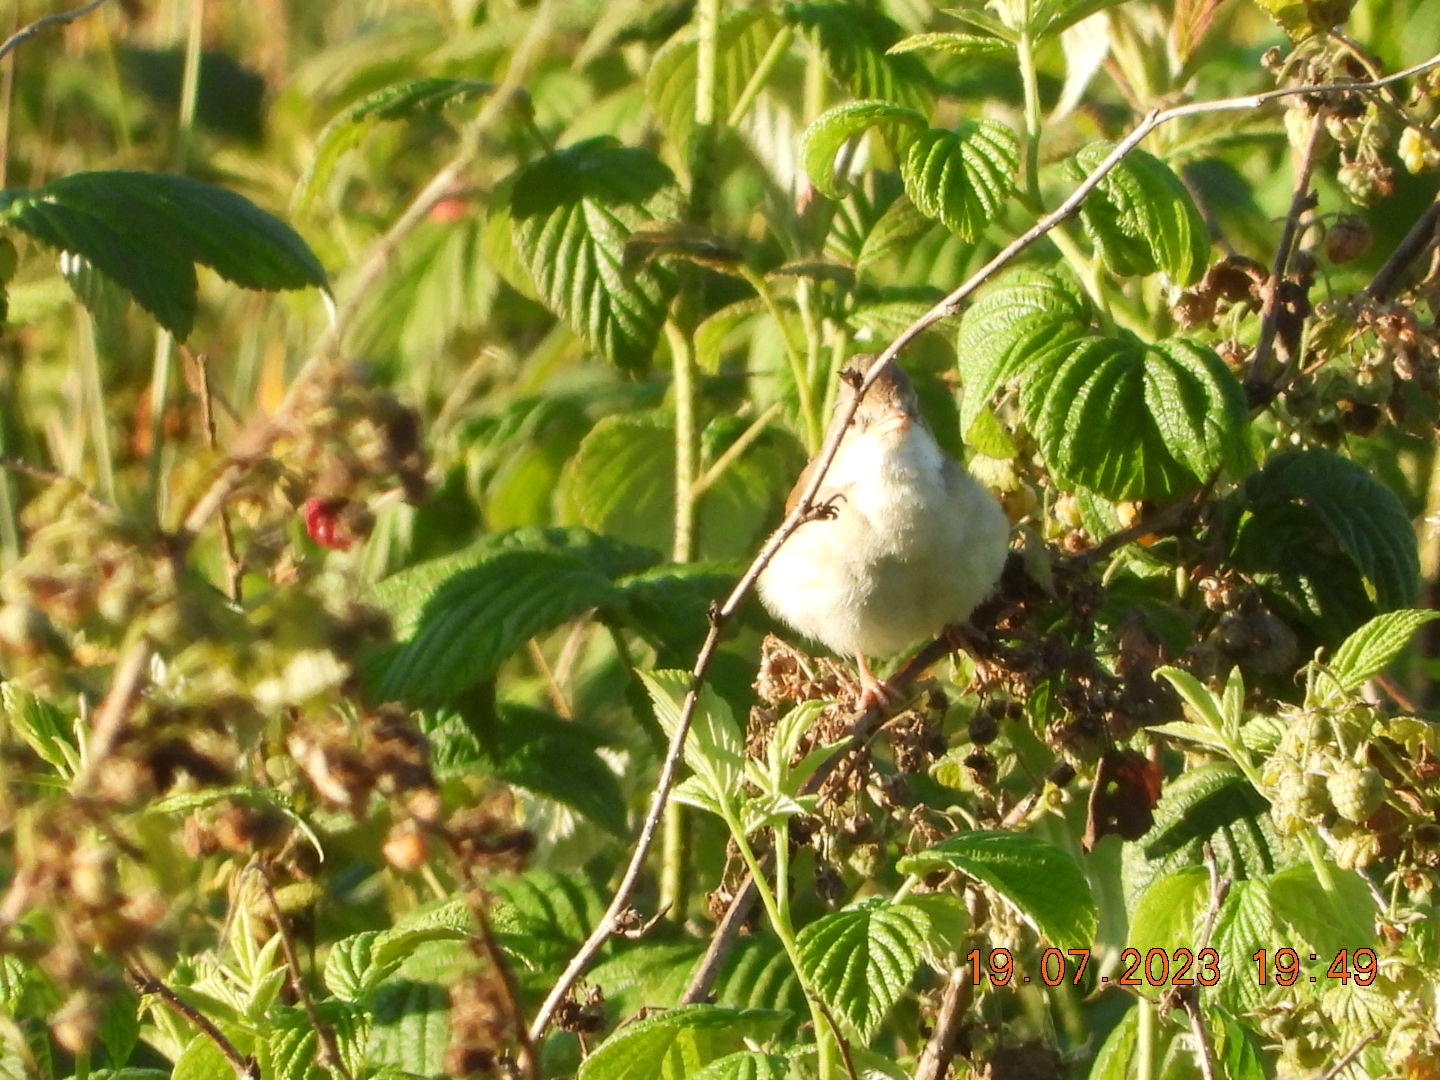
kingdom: Animalia
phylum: Chordata
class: Aves
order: Passeriformes
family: Sylviidae
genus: Sylvia
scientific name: Sylvia communis
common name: Tornsanger
